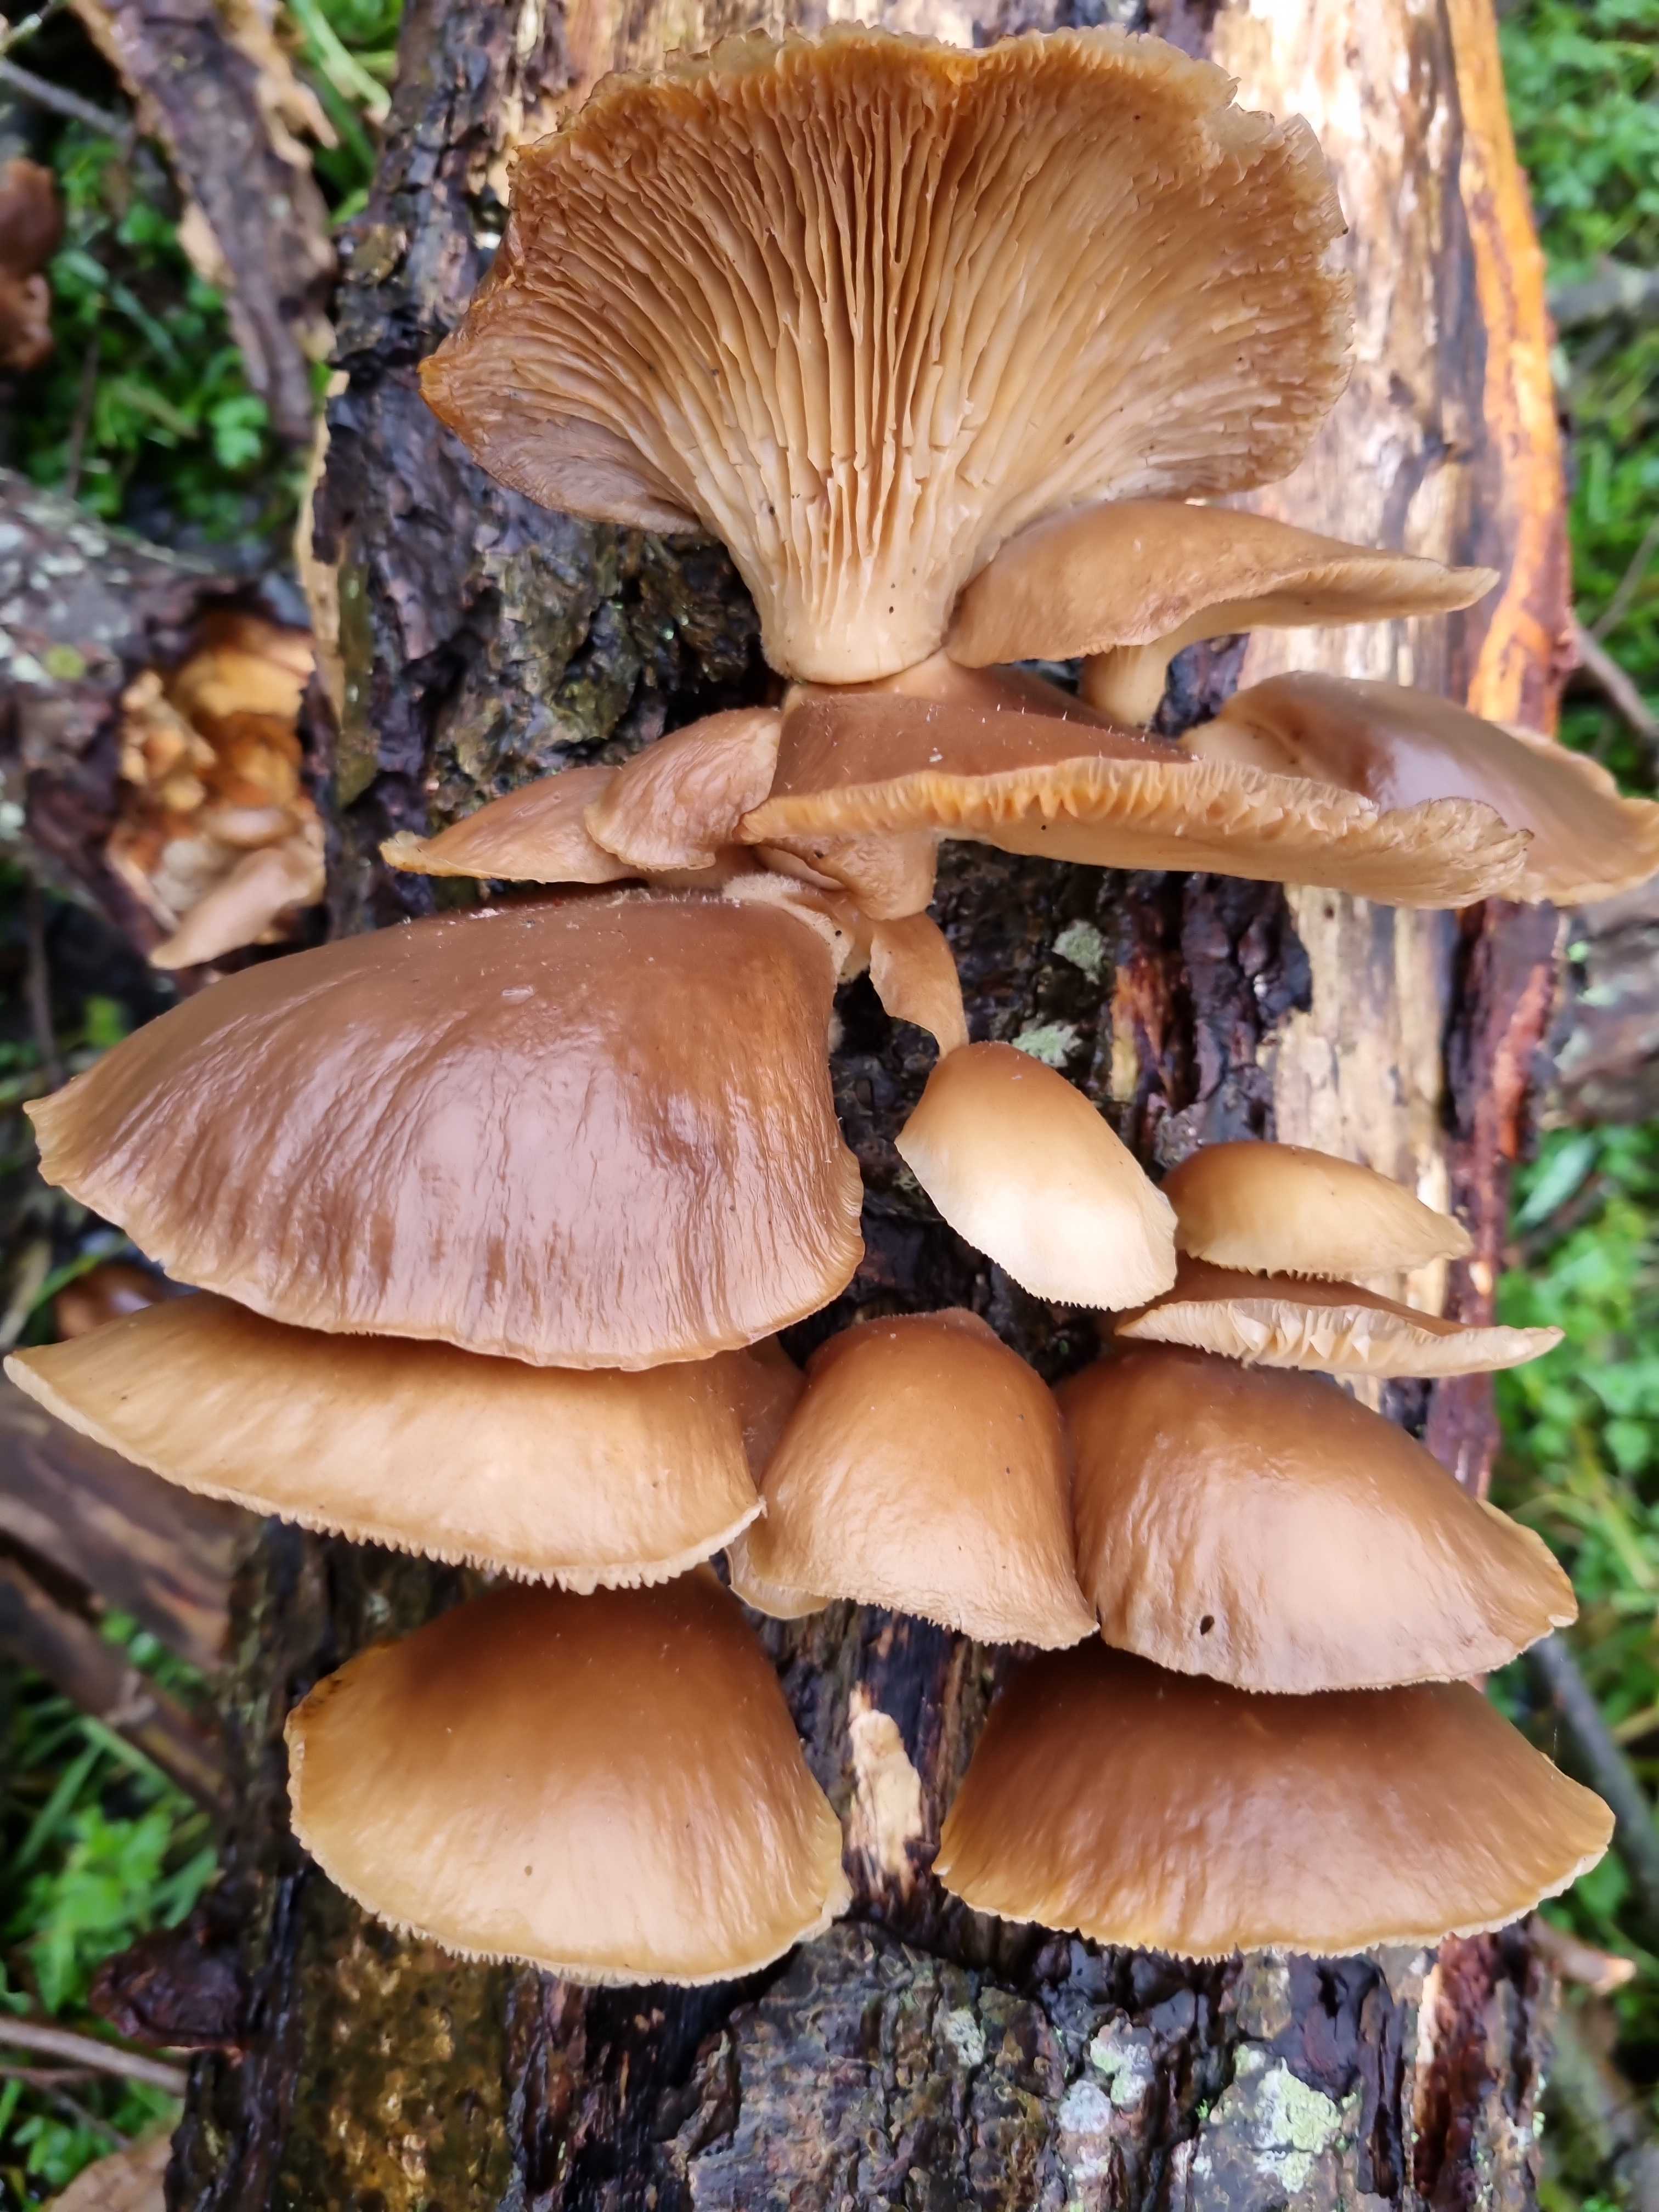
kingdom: Fungi
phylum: Basidiomycota
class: Agaricomycetes
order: Agaricales
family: Pleurotaceae
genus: Pleurotus
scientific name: Pleurotus ostreatus
